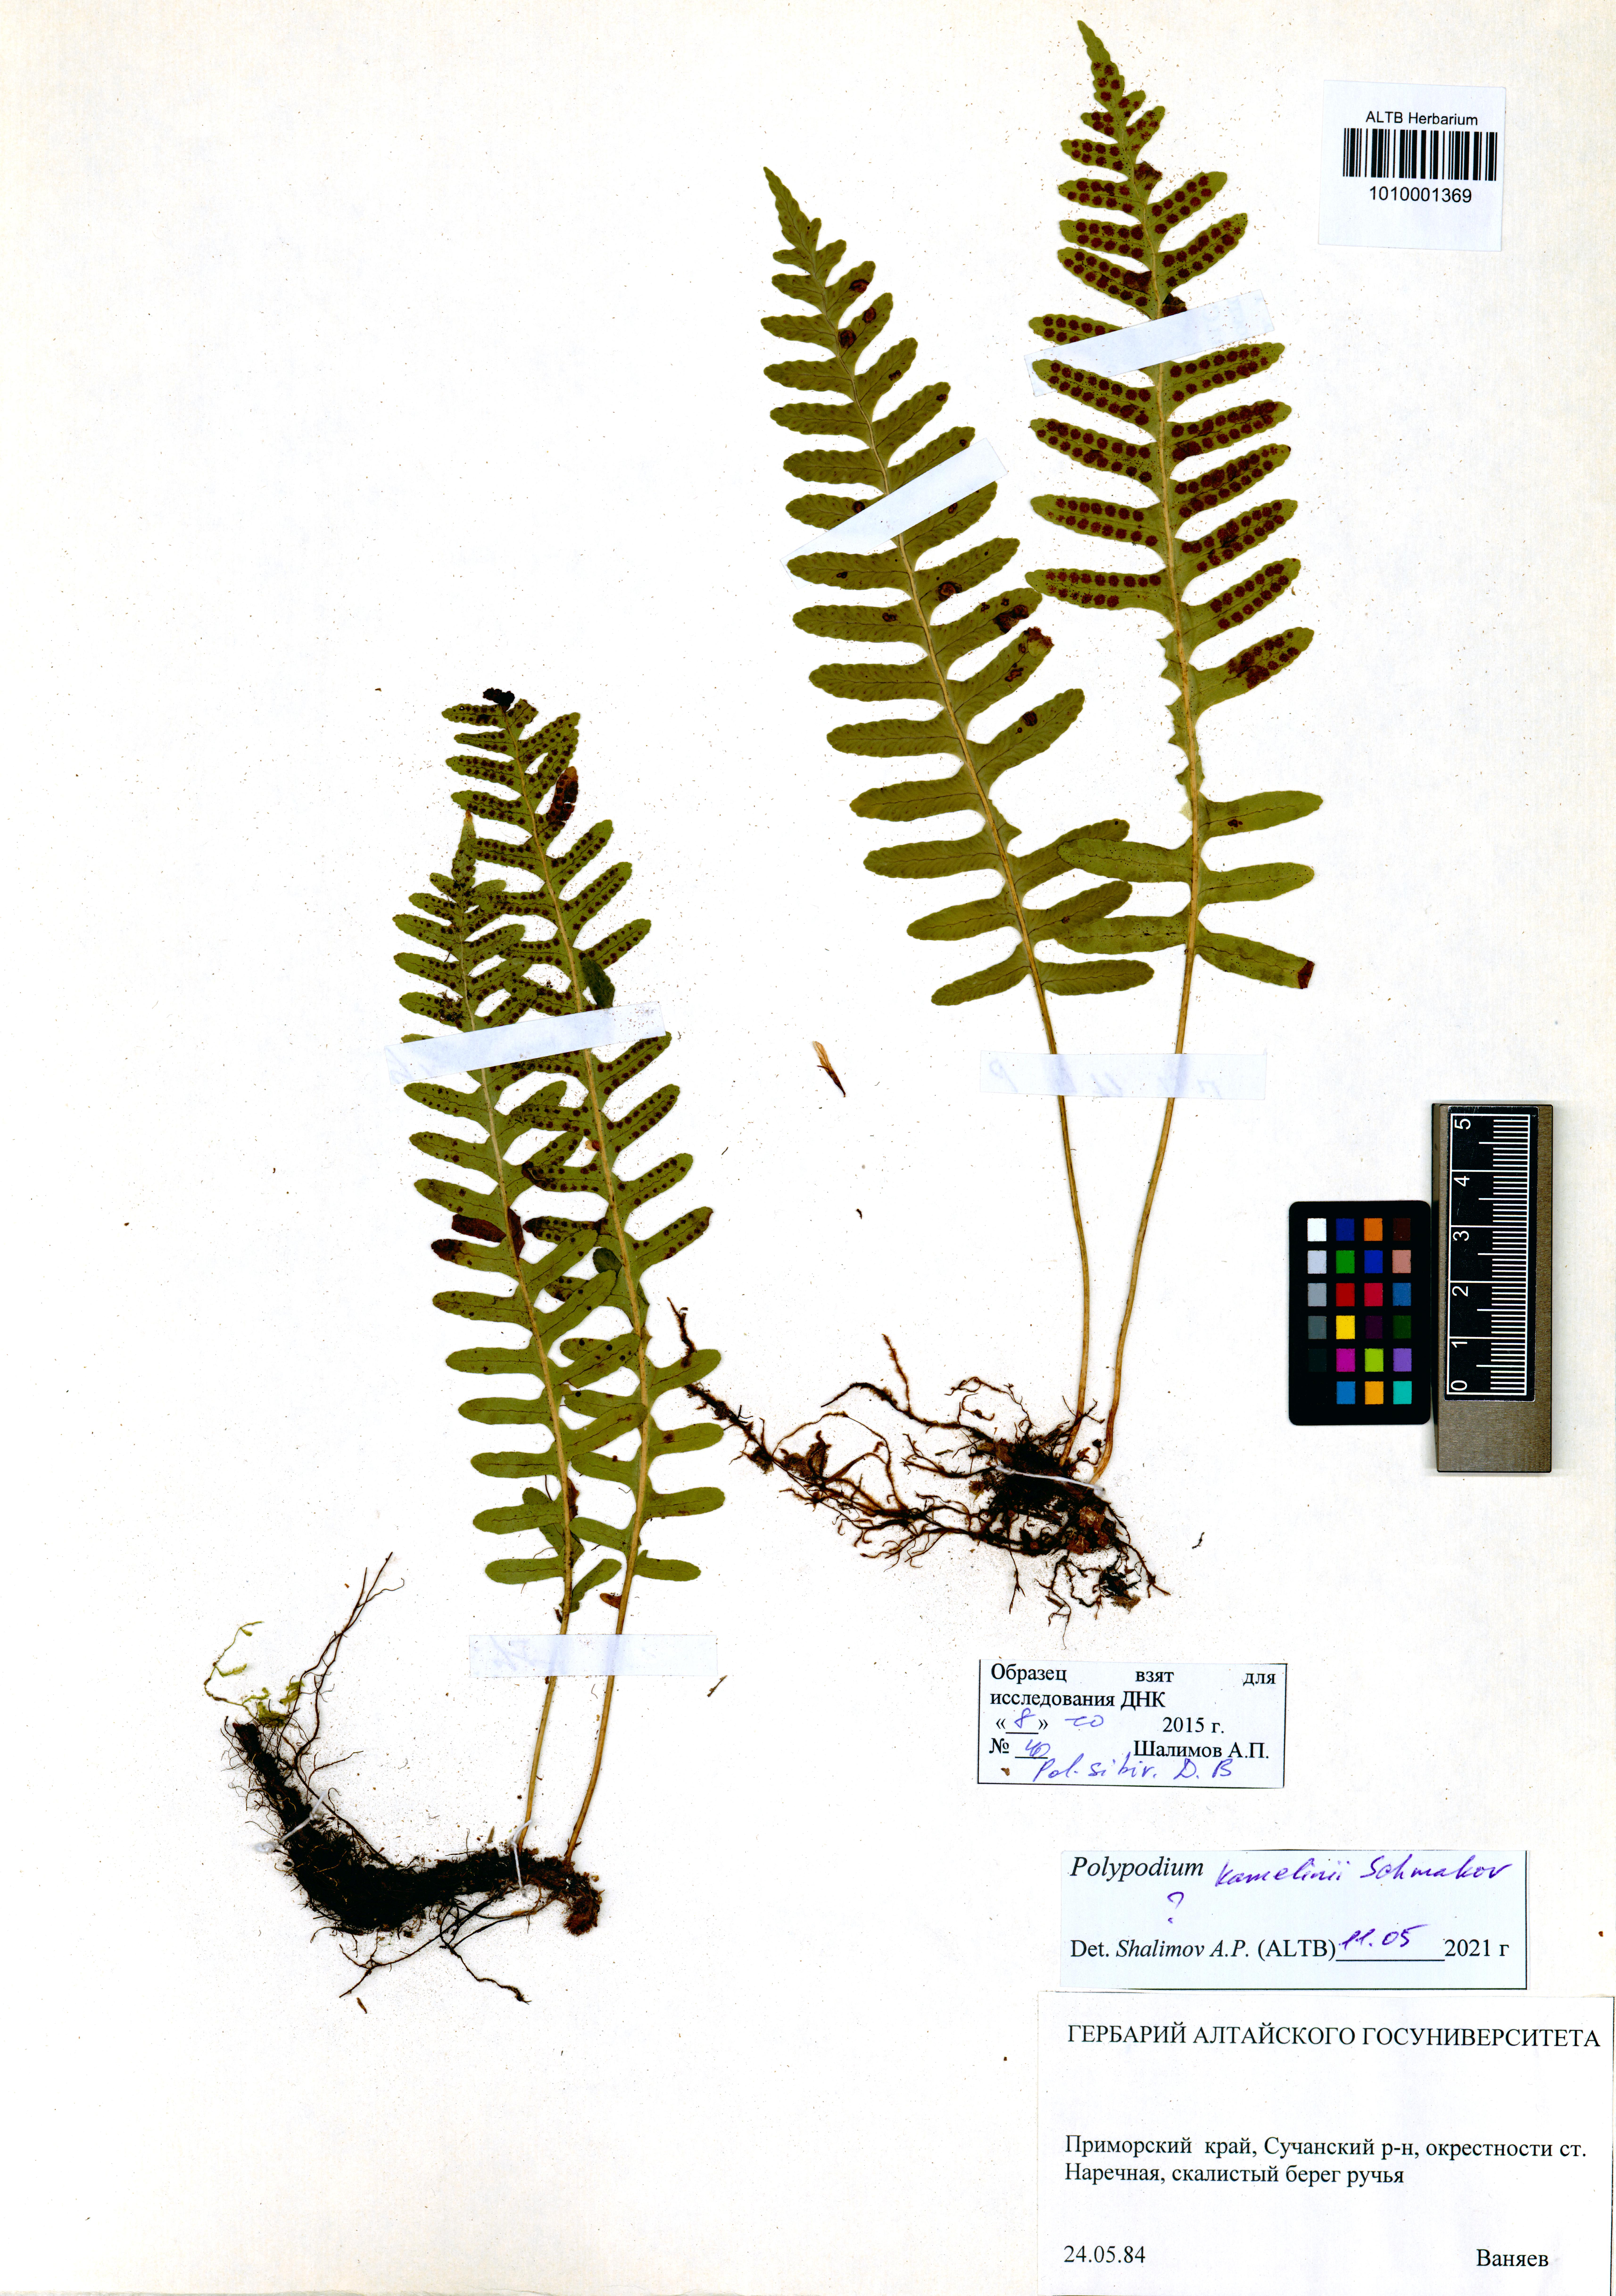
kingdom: Plantae
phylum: Tracheophyta
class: Polypodiopsida
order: Polypodiales
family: Polypodiaceae
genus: Polypodium
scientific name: Polypodium kamelinii
